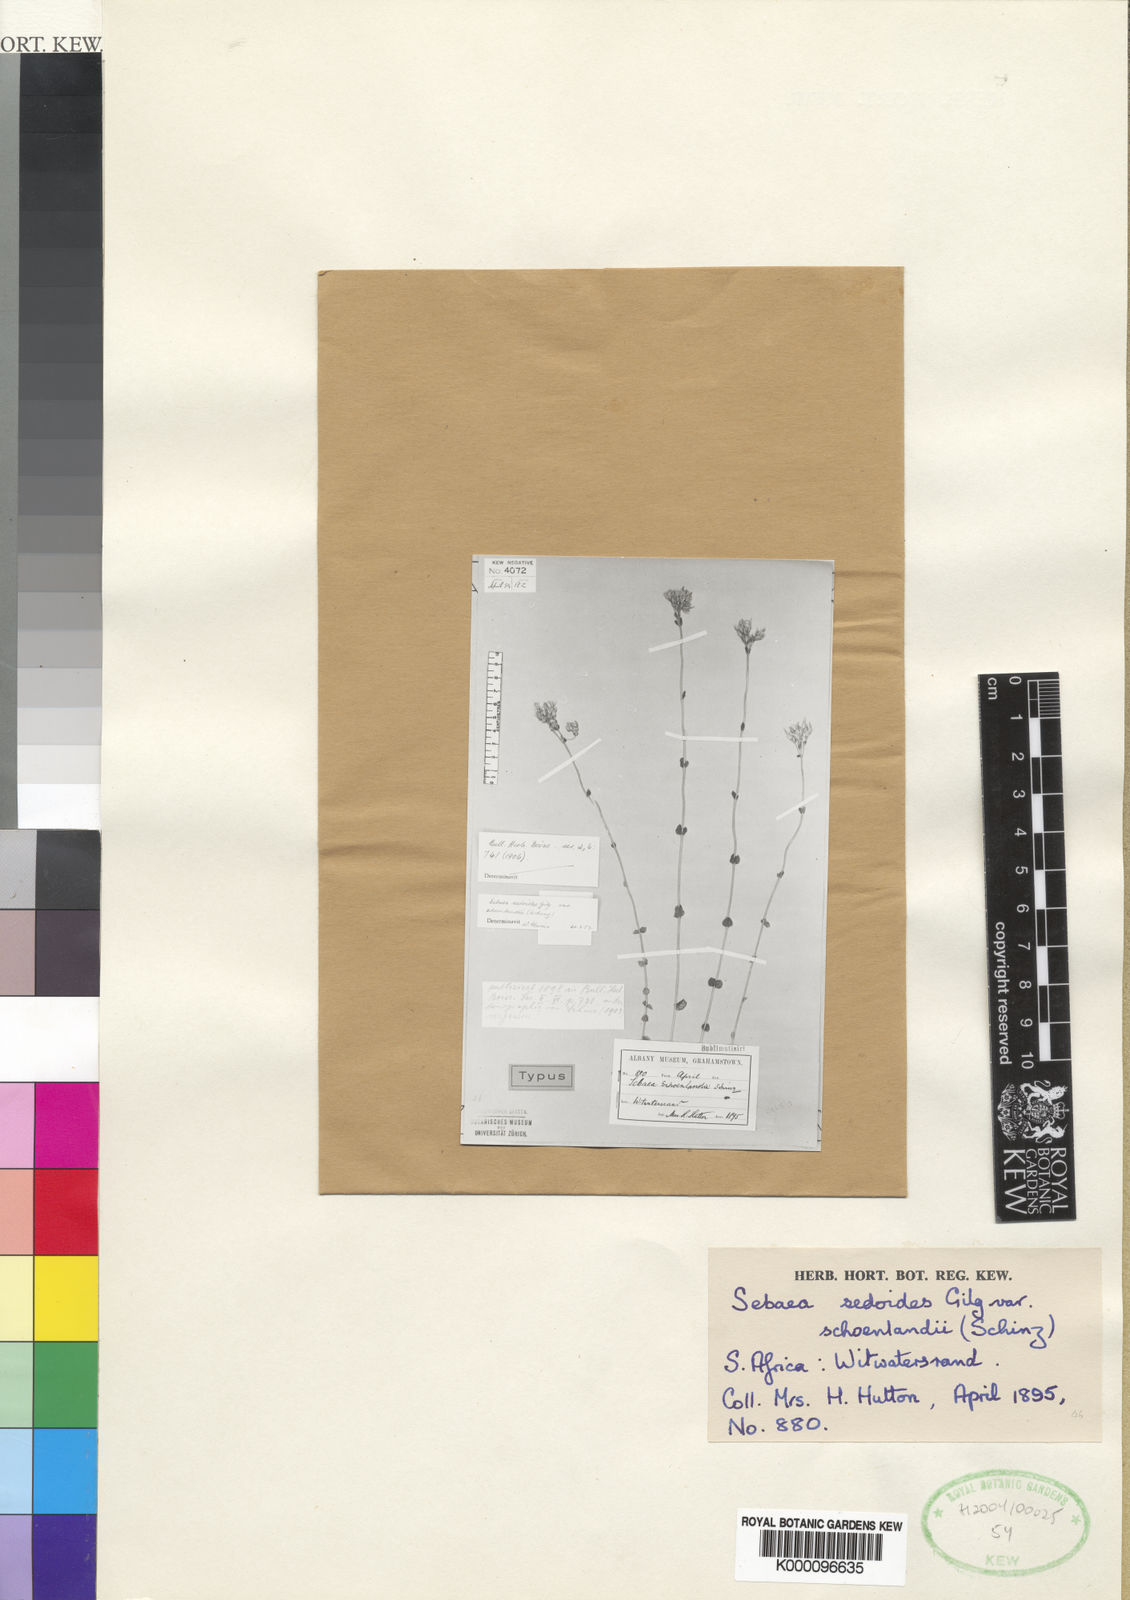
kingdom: Plantae
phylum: Tracheophyta
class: Magnoliopsida
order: Gentianales
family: Gentianaceae
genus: Sebaea
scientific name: Sebaea
